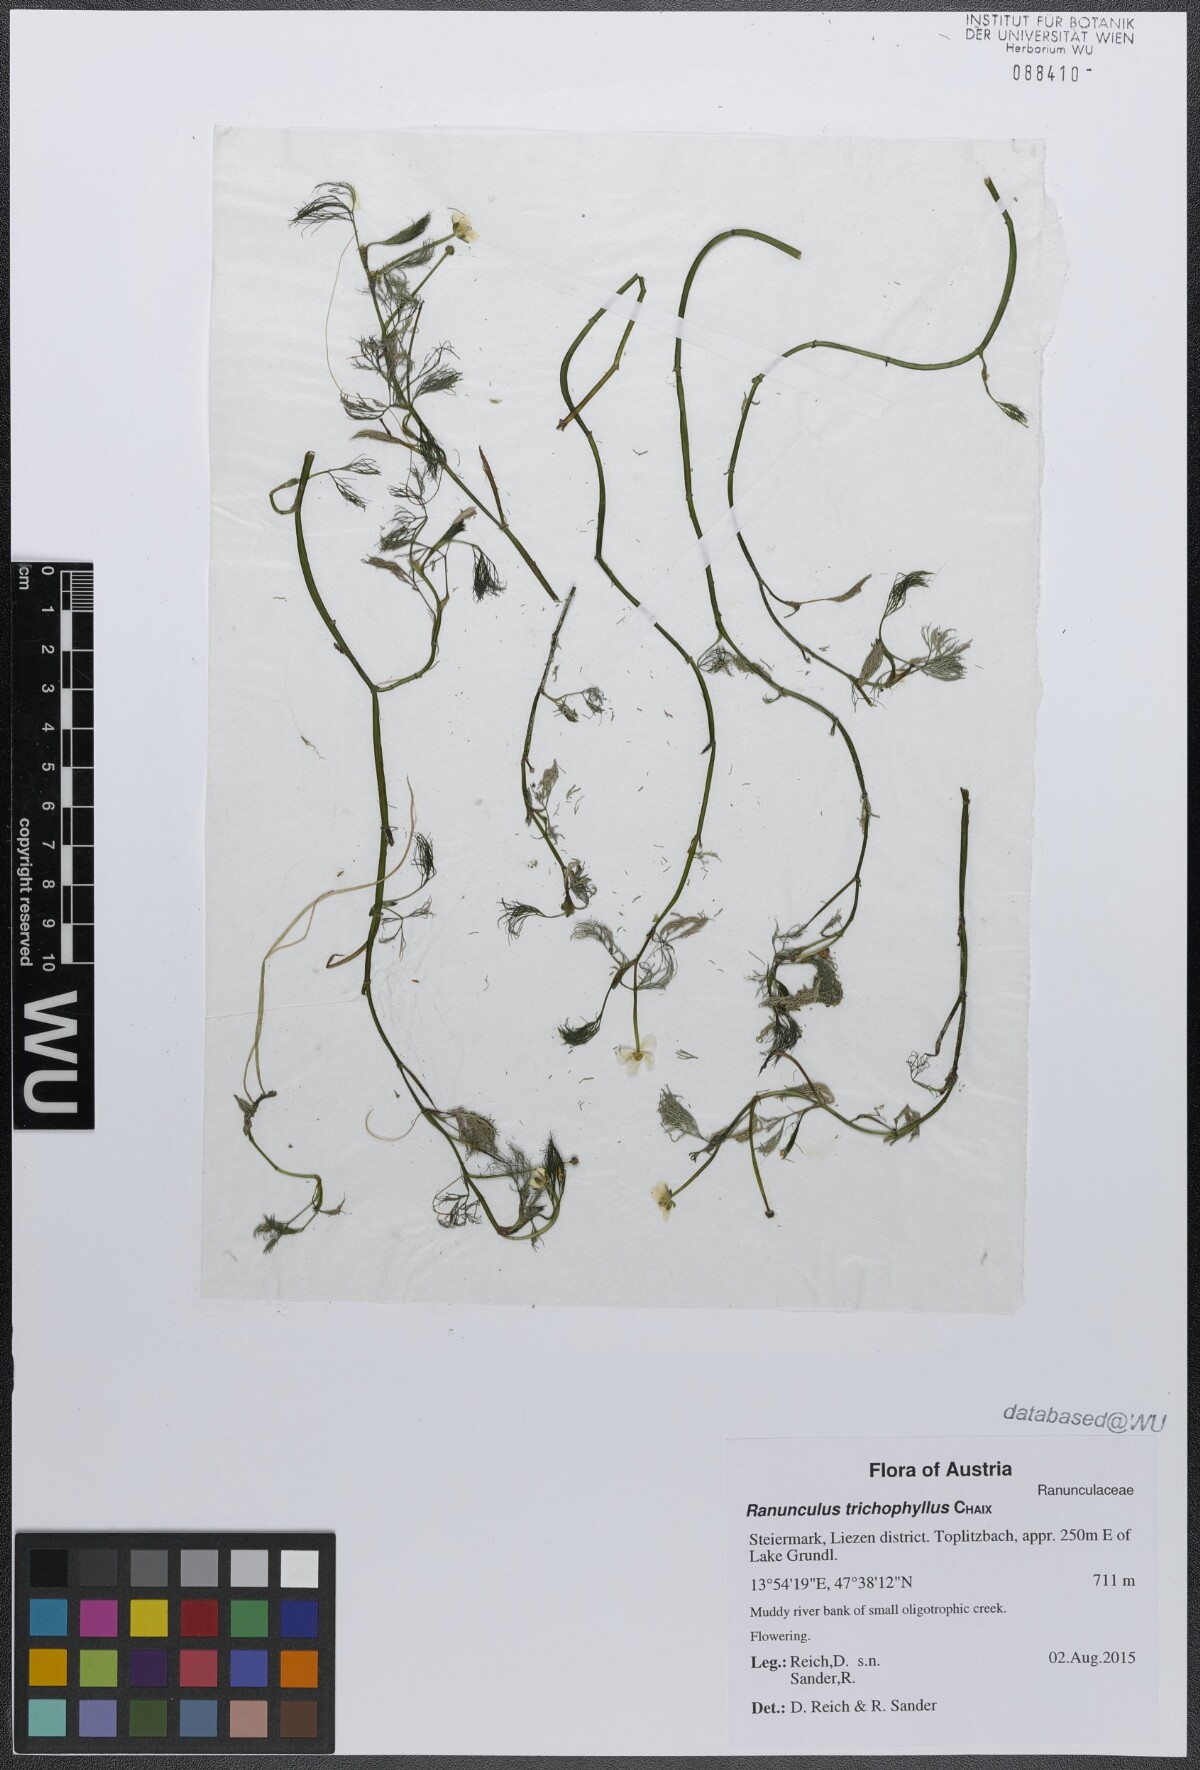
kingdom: Plantae
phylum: Tracheophyta
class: Magnoliopsida
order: Ranunculales
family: Ranunculaceae
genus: Ranunculus
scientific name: Ranunculus trichophyllus
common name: Thread-leaved water-crowfoot
